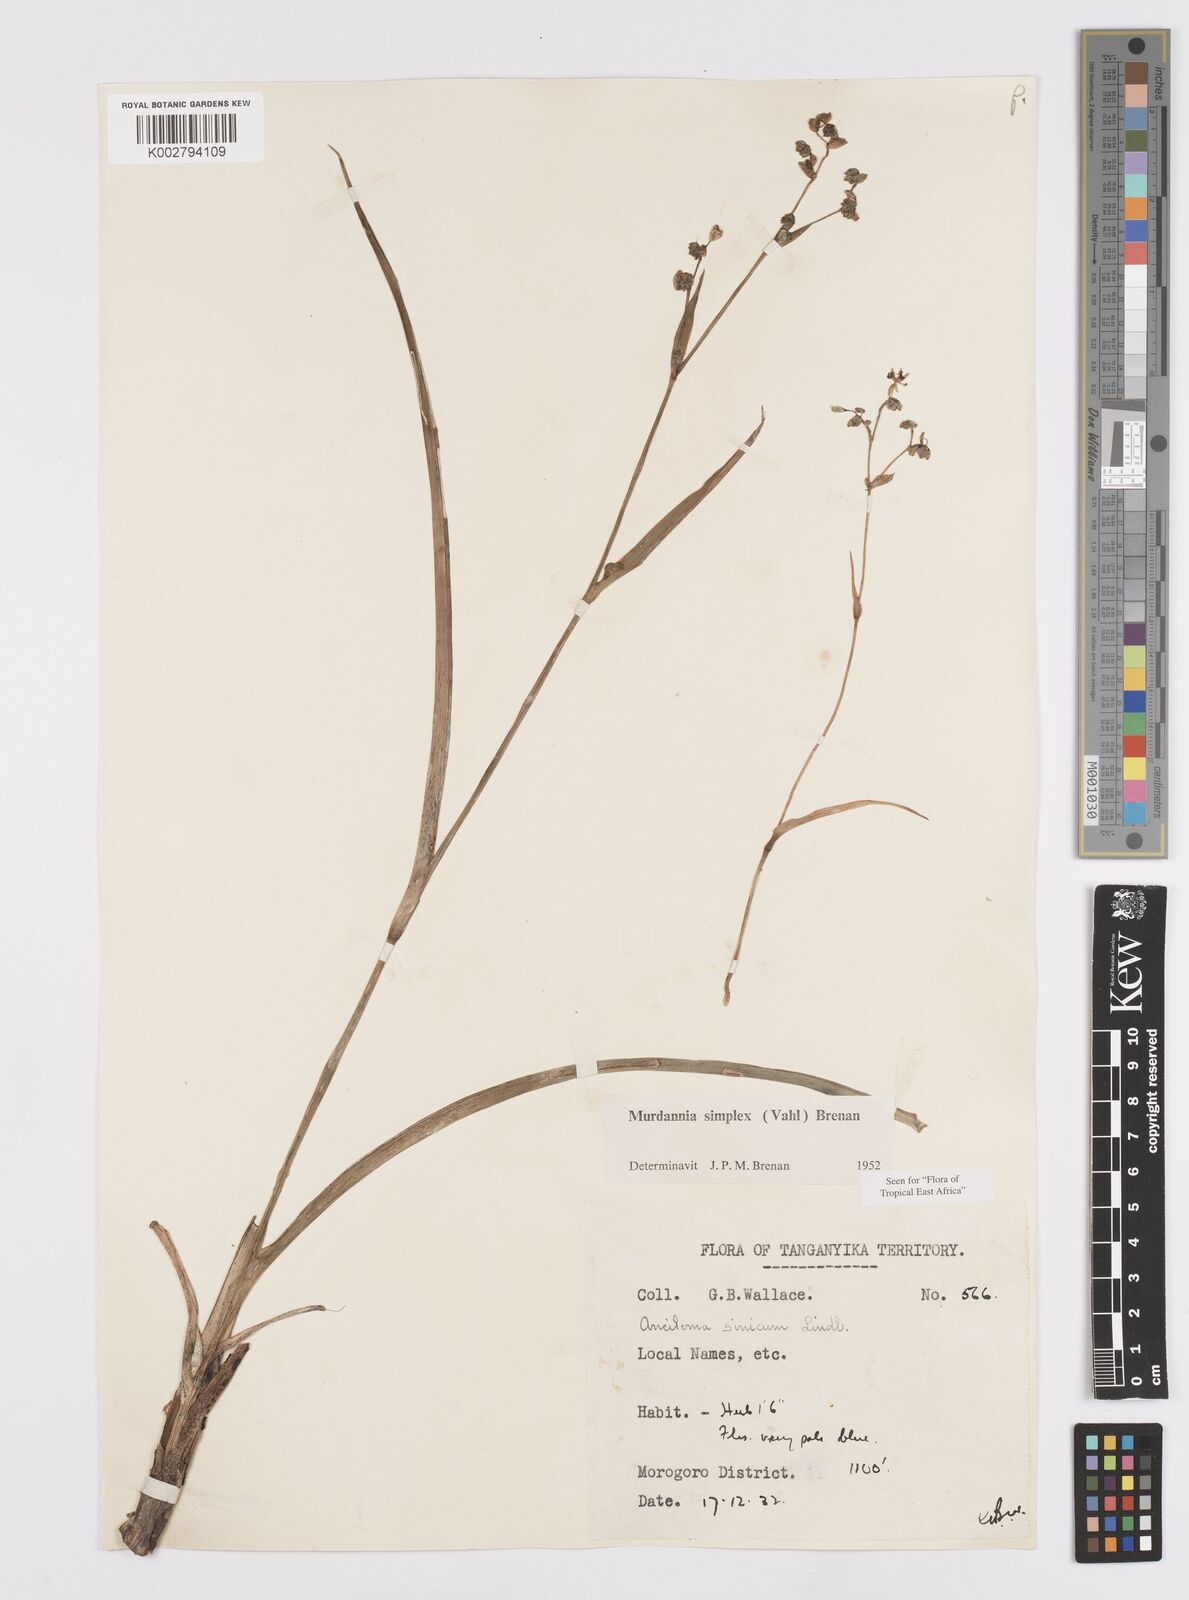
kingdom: Plantae
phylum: Tracheophyta
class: Liliopsida
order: Commelinales
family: Commelinaceae
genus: Murdannia
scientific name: Murdannia simplex
